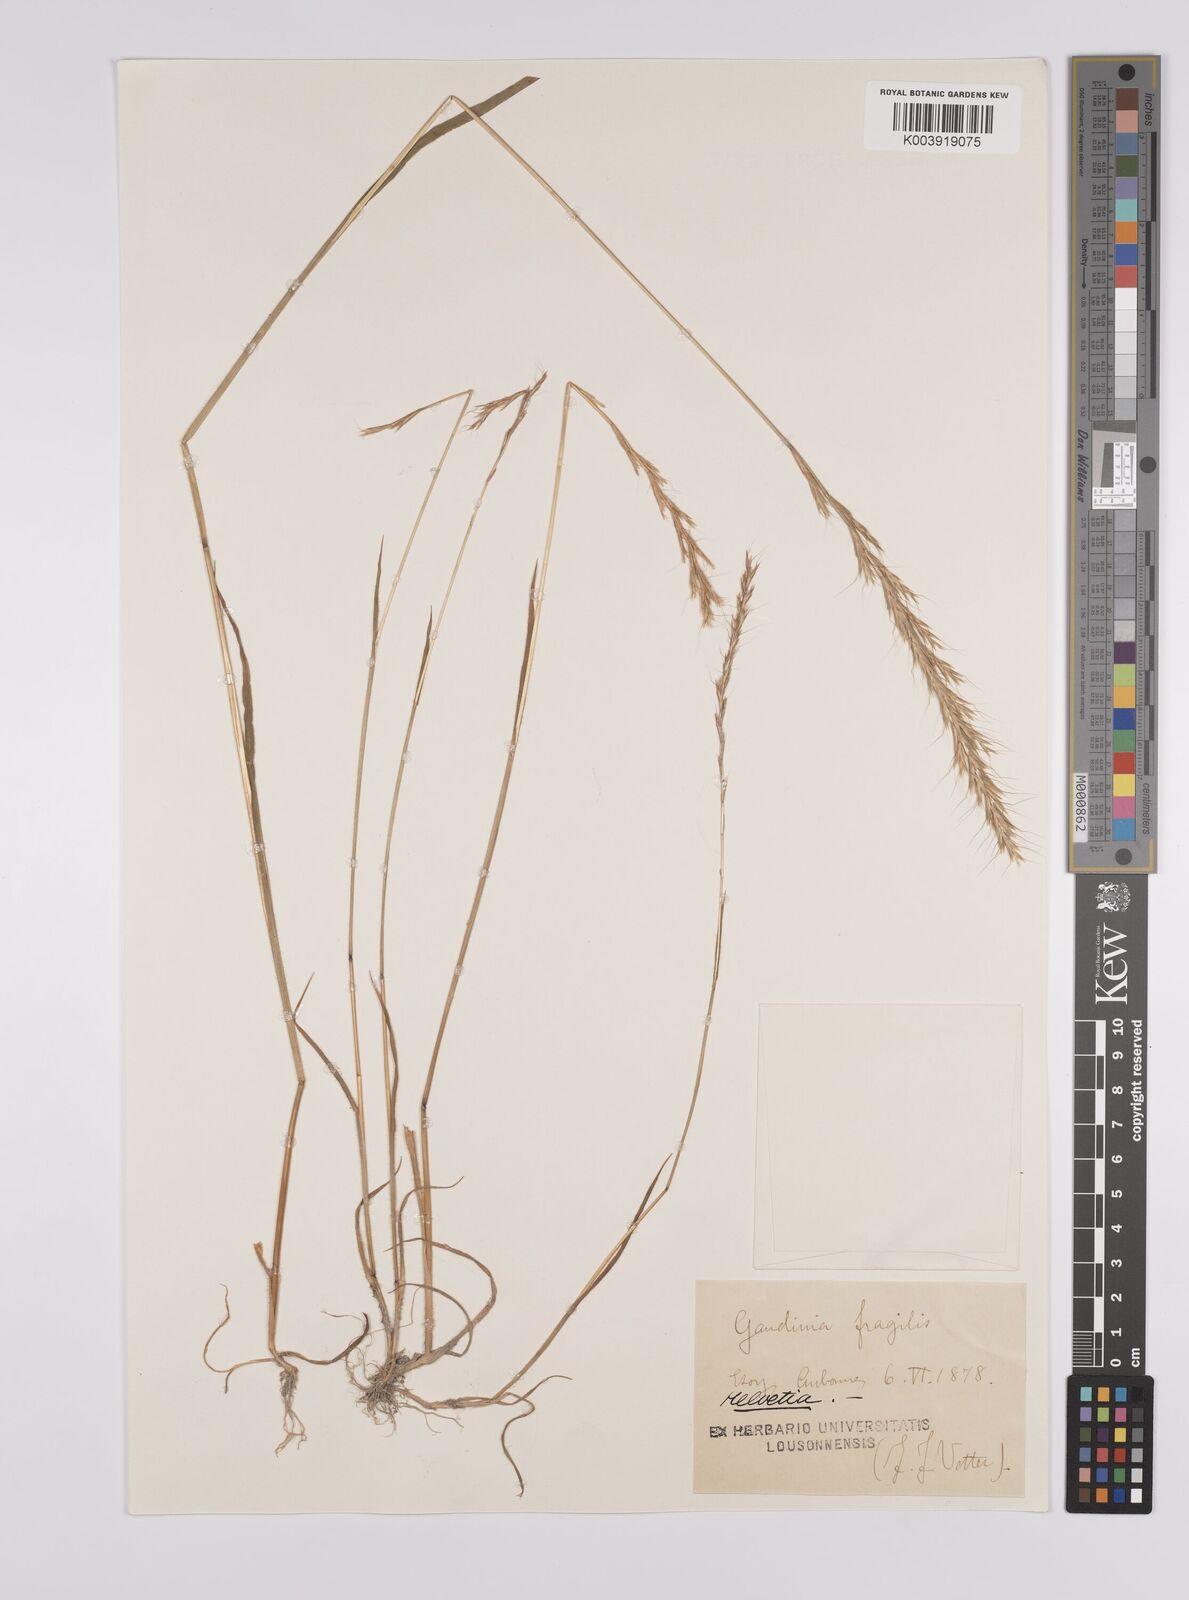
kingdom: Plantae
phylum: Tracheophyta
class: Liliopsida
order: Poales
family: Poaceae
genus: Gaudinia
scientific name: Gaudinia fragilis
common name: French oat-grass
